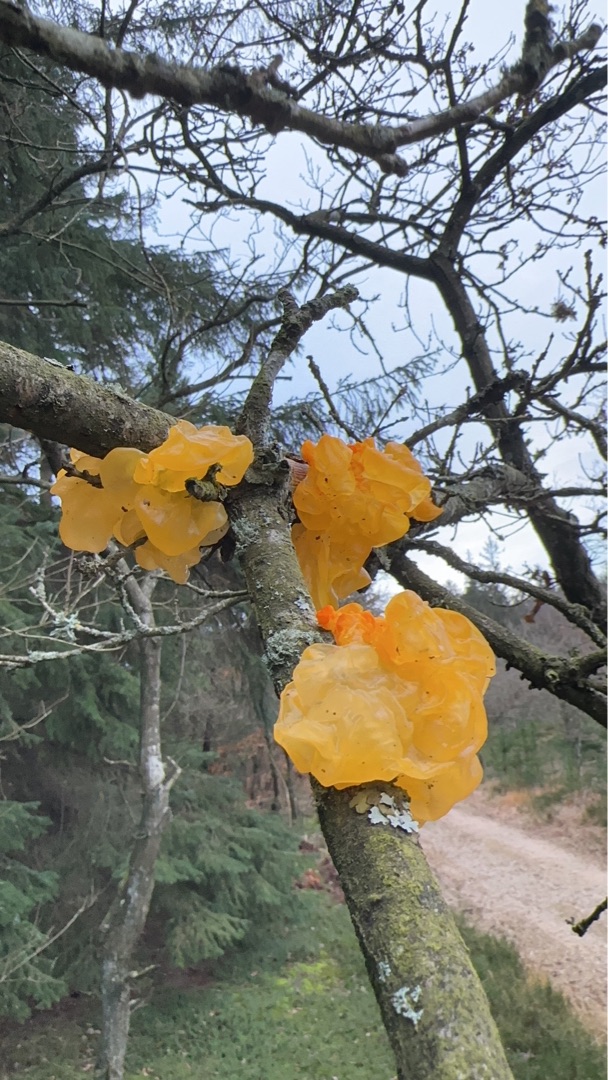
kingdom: Fungi
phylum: Basidiomycota
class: Tremellomycetes
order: Tremellales
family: Tremellaceae
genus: Tremella
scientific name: Tremella mesenterica
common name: Gul bævresvamp
